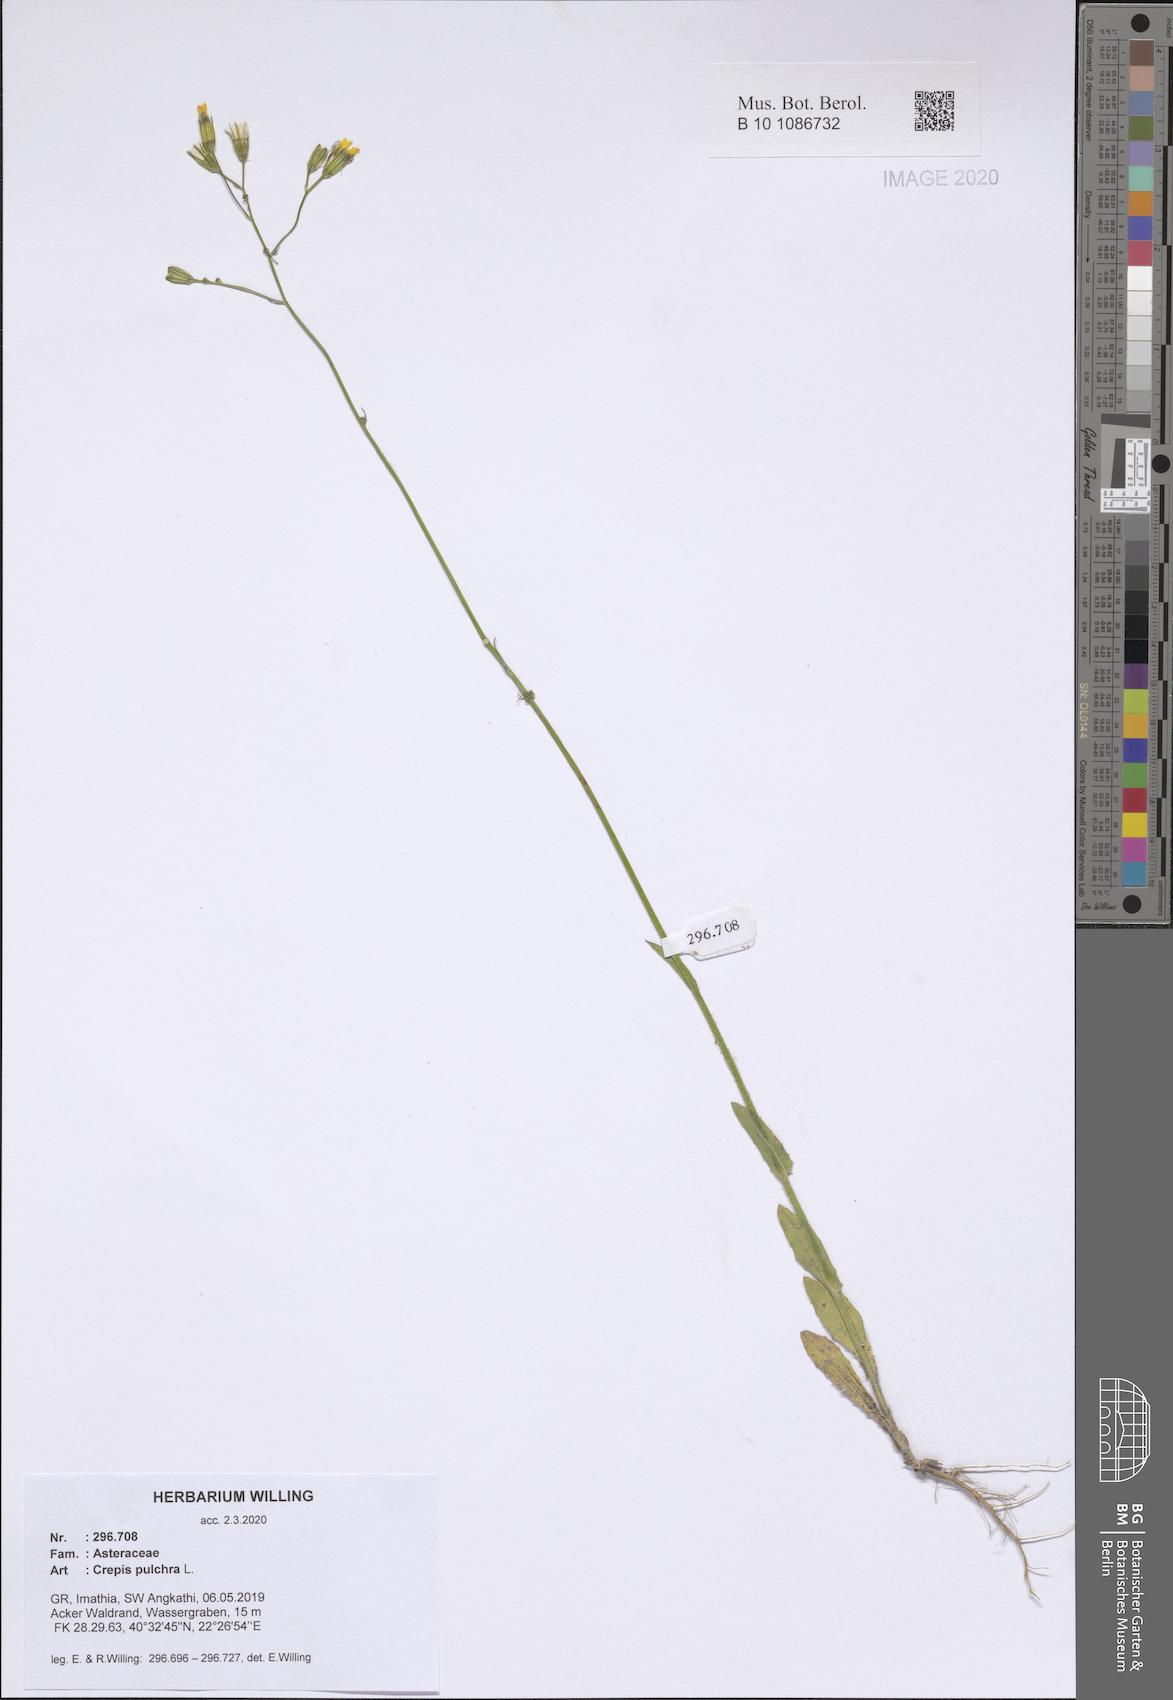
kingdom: Plantae
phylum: Tracheophyta
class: Magnoliopsida
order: Asterales
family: Asteraceae
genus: Crepis
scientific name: Crepis pulchra
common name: Hawk's-beard
